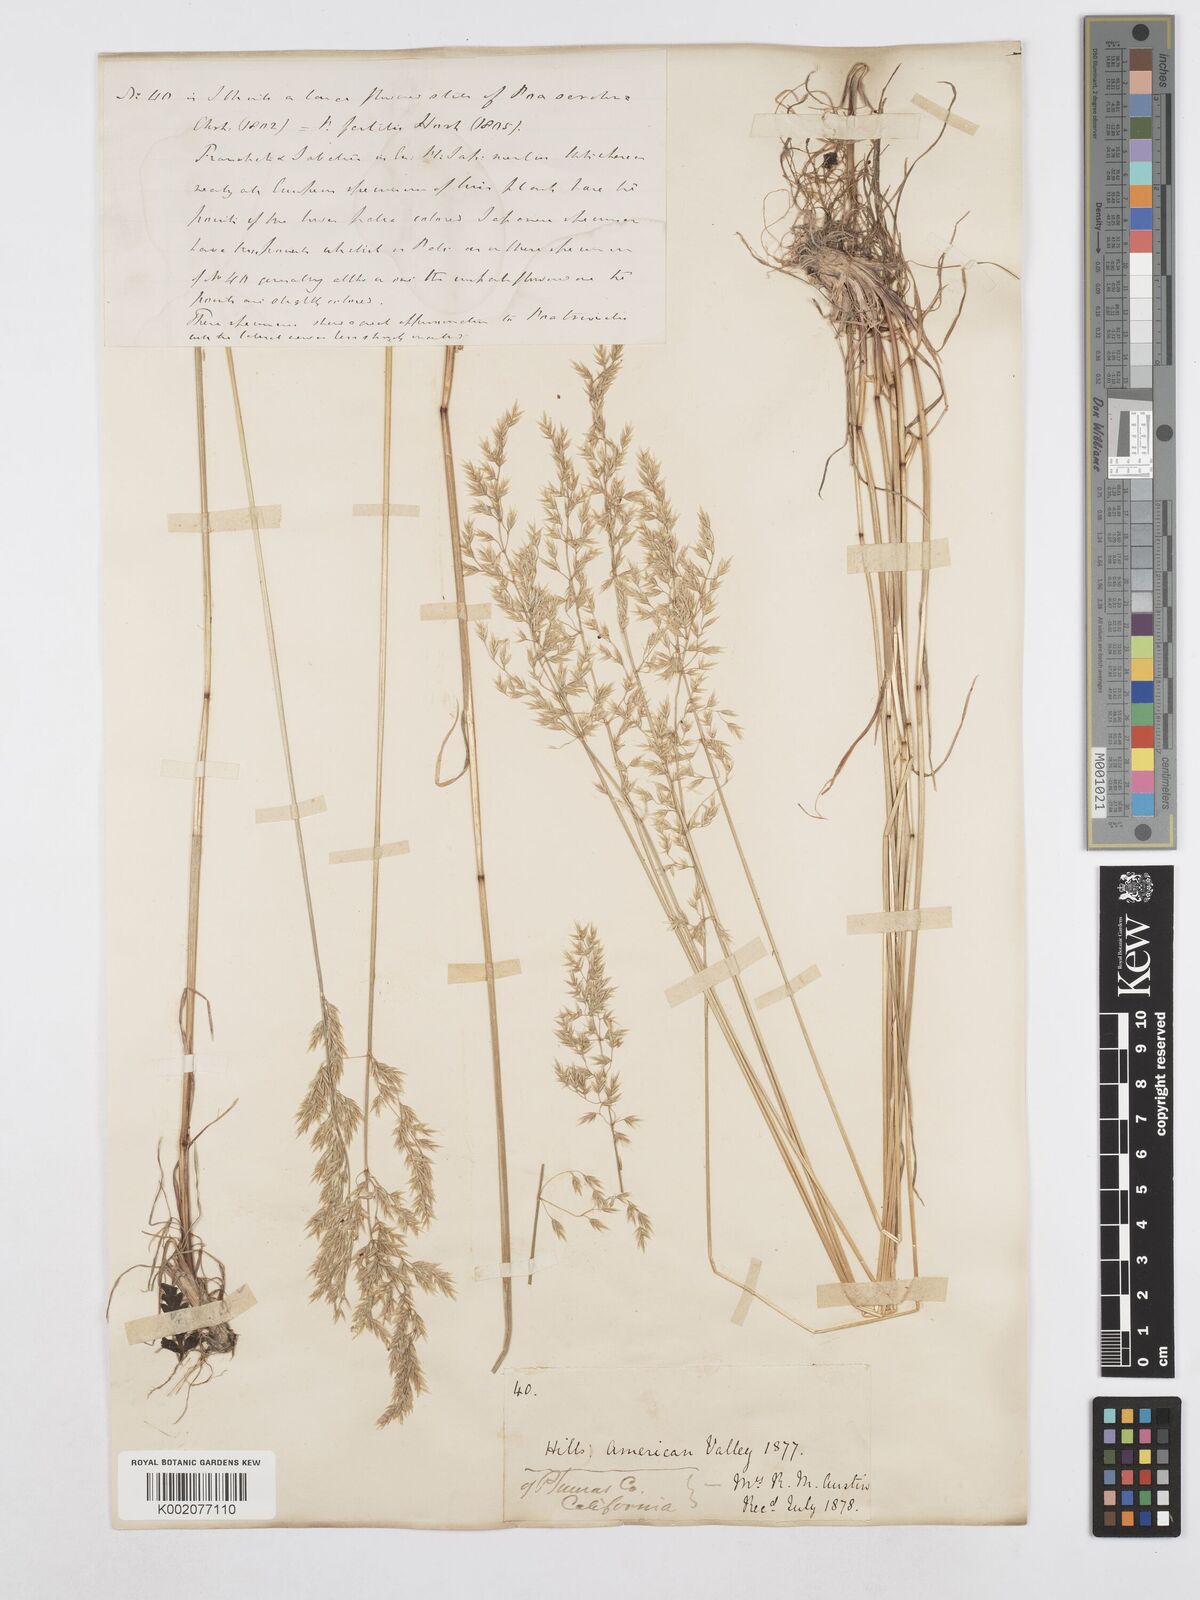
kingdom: Plantae
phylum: Tracheophyta
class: Liliopsida
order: Poales
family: Poaceae
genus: Poa
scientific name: Poa palustris
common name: Swamp meadow-grass
